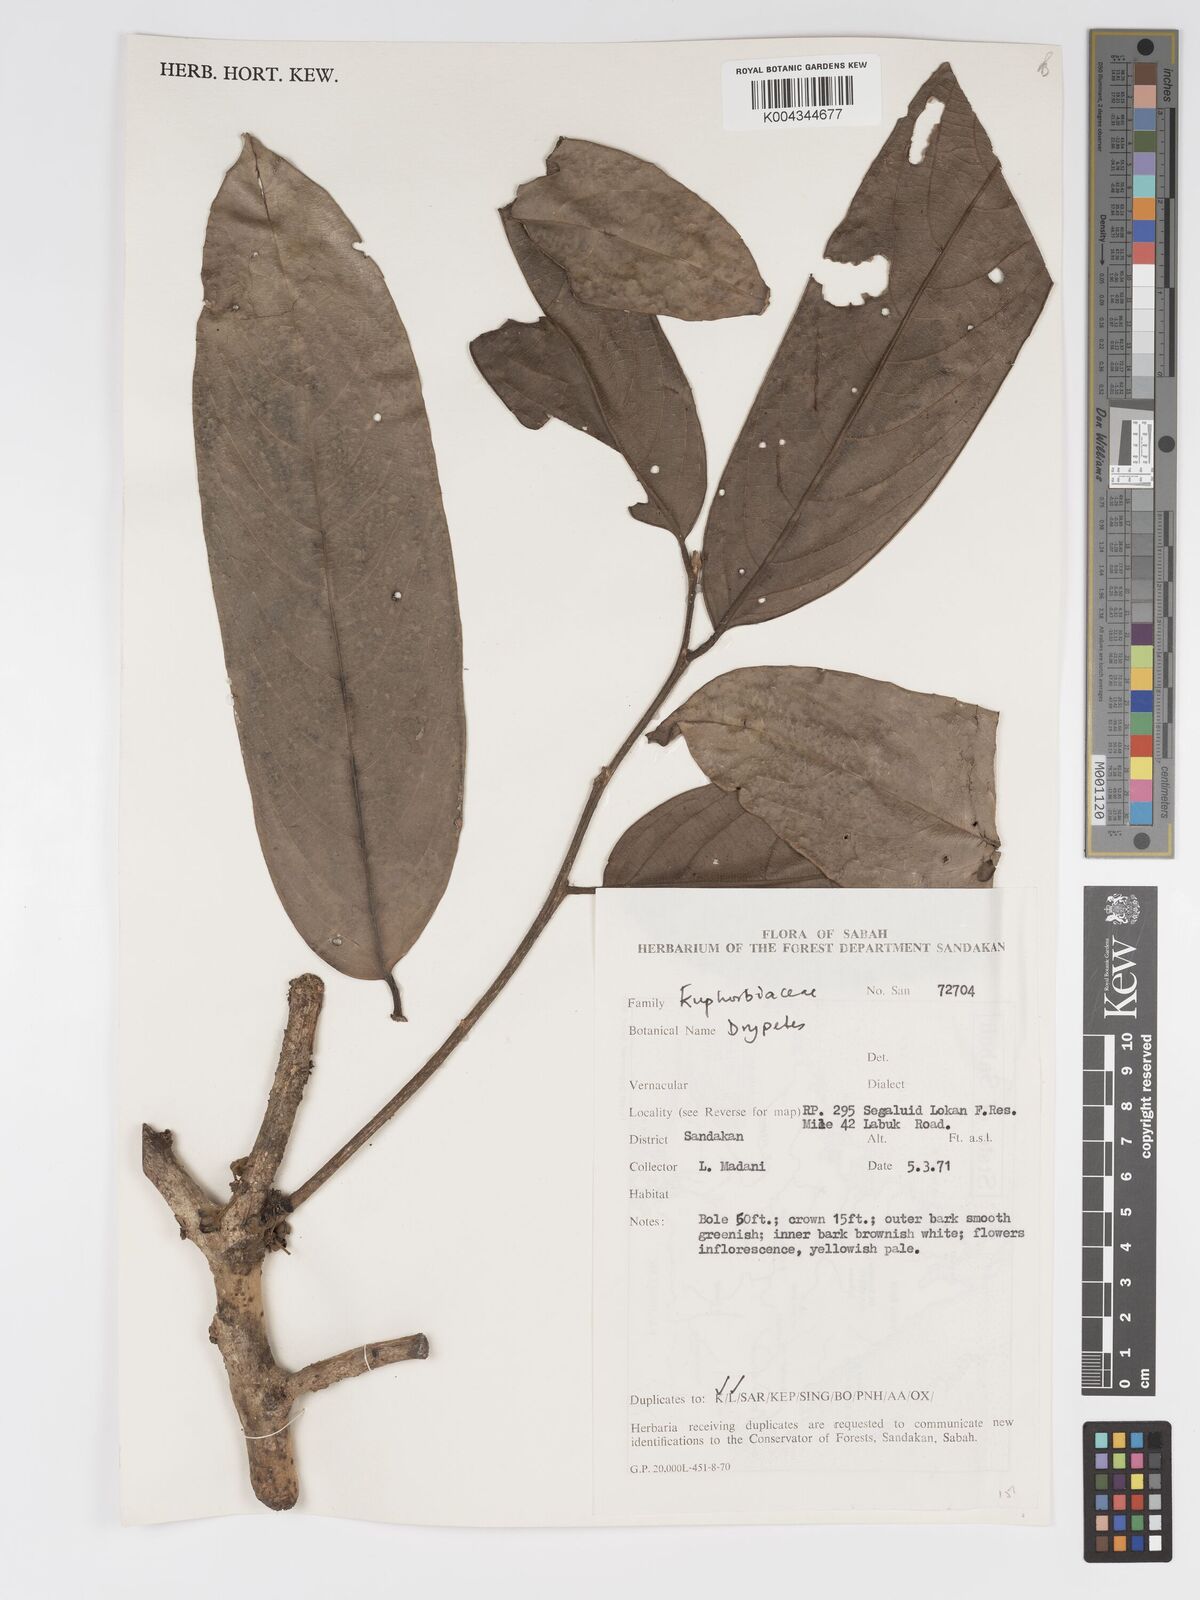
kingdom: Plantae
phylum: Tracheophyta
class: Magnoliopsida
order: Malpighiales
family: Putranjivaceae
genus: Drypetes
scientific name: Drypetes longifolia
